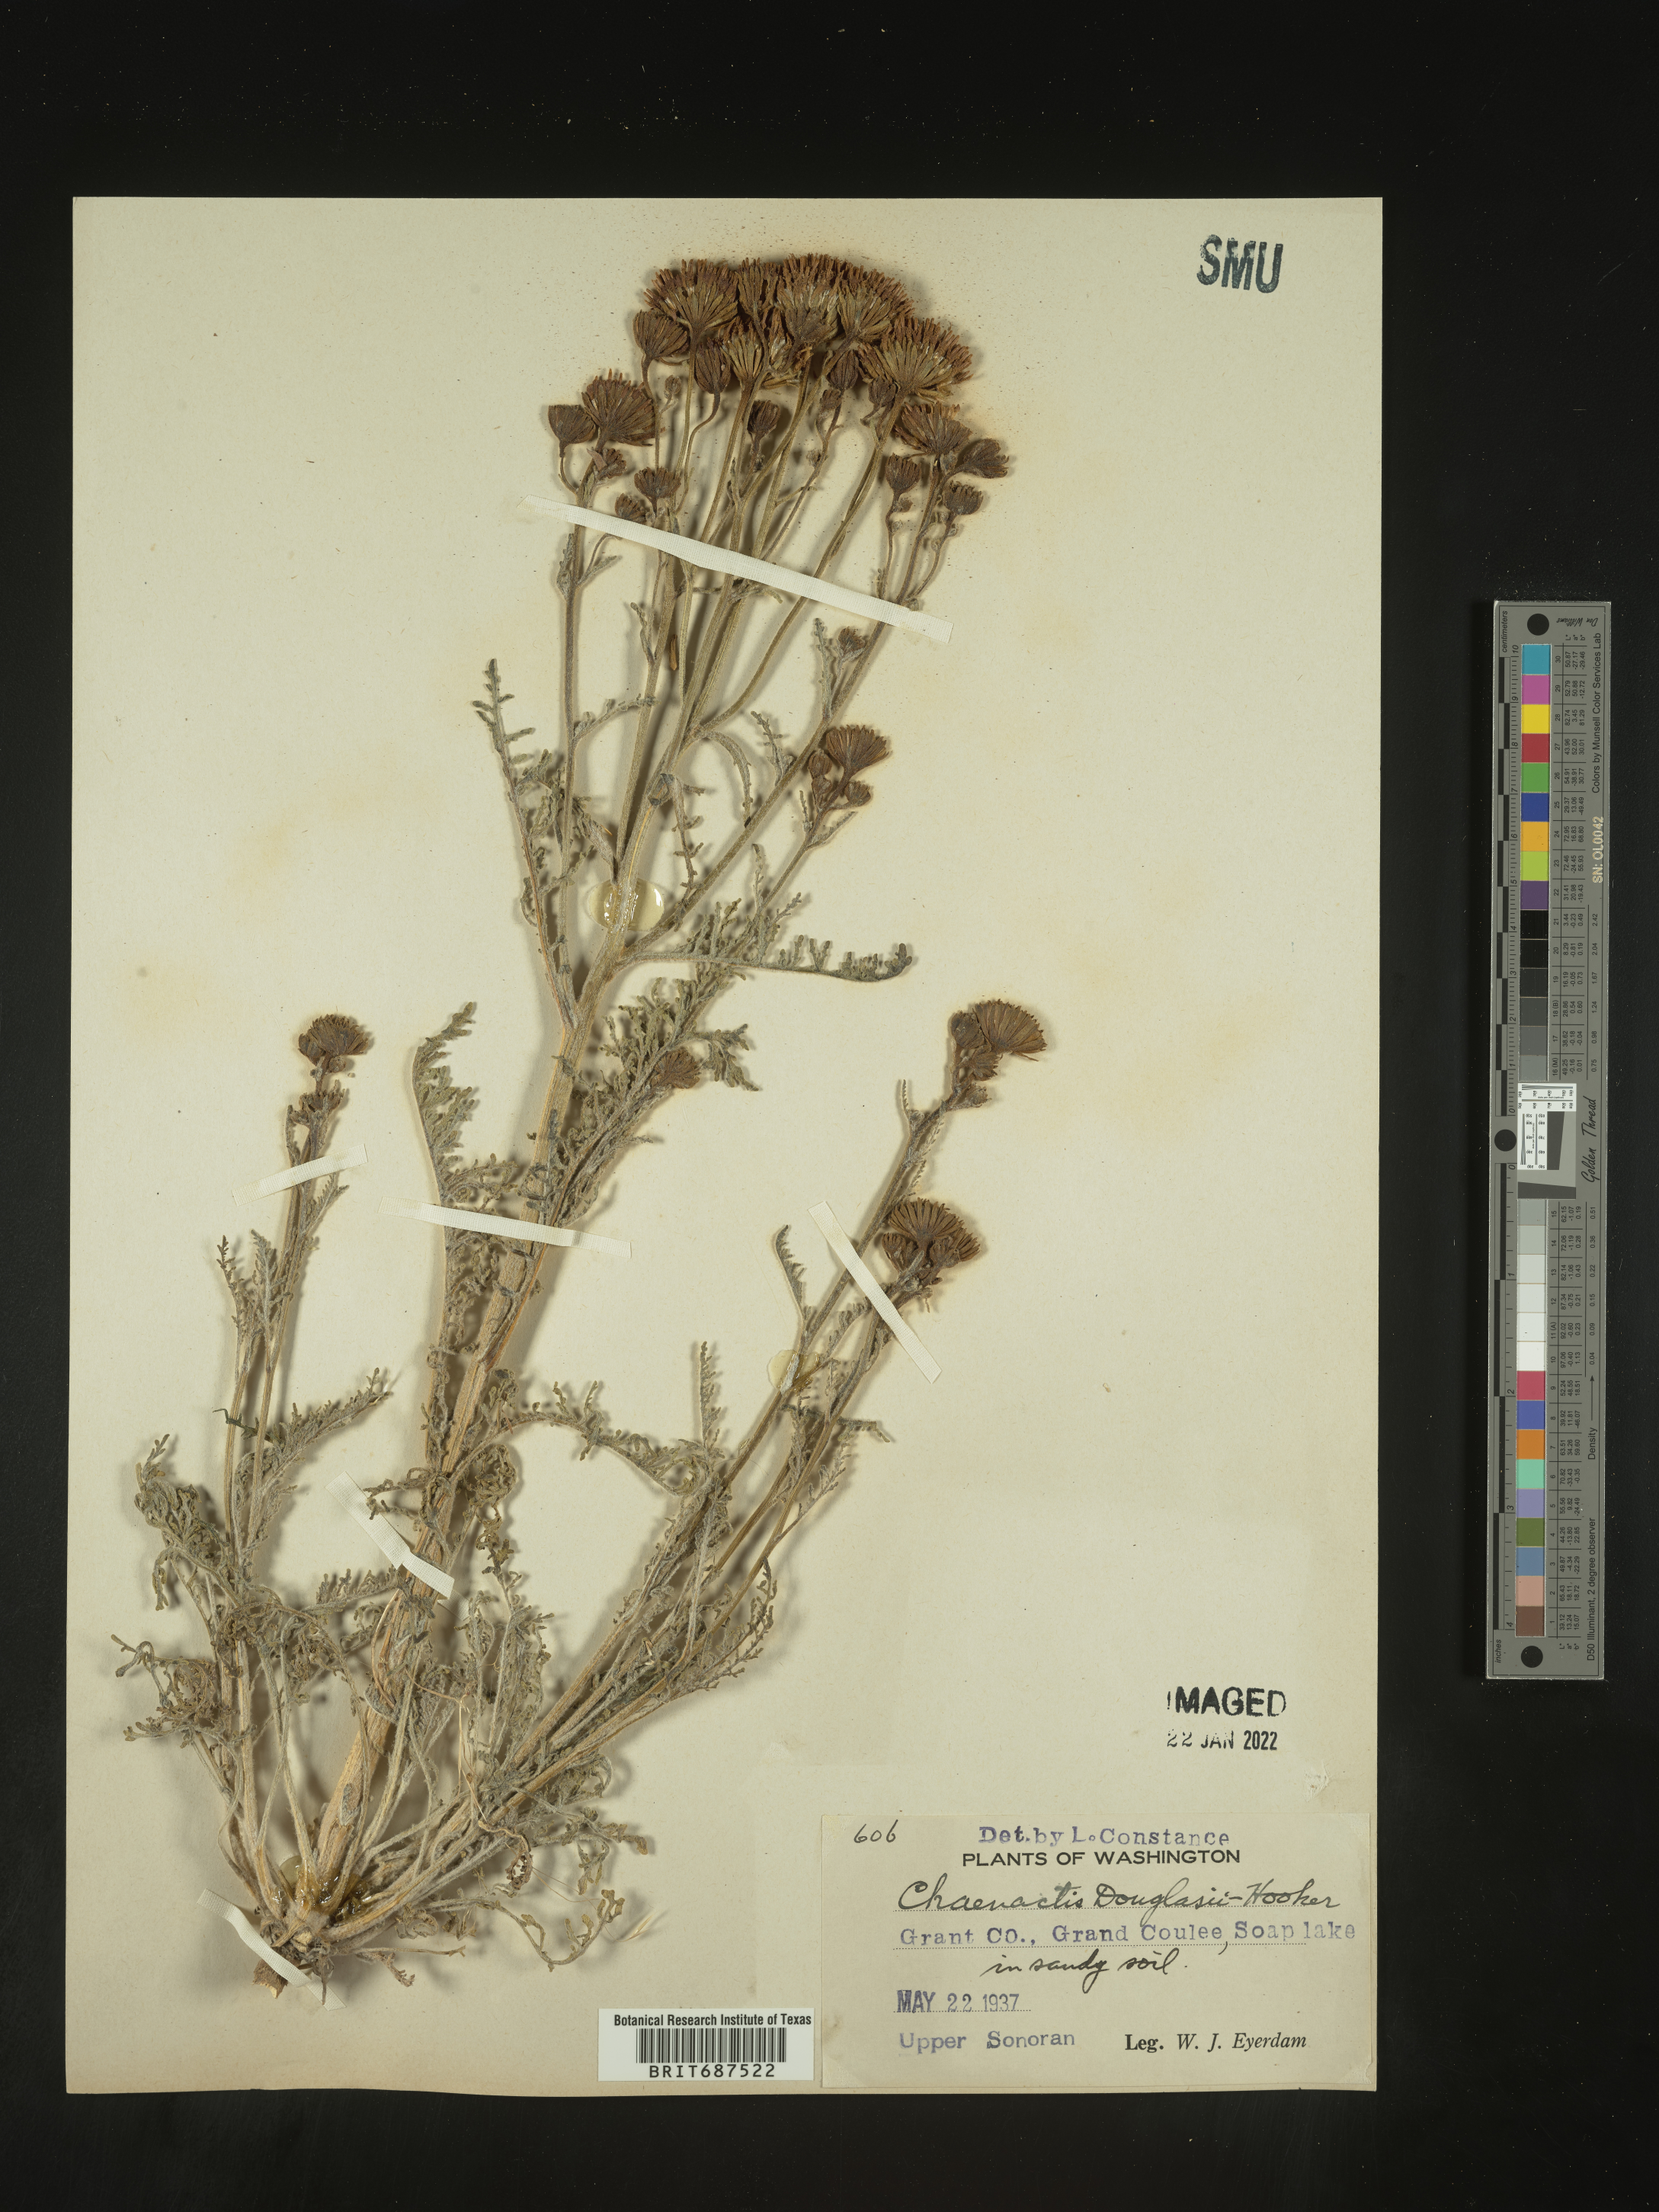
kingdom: Plantae
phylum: Tracheophyta
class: Magnoliopsida
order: Asterales
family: Asteraceae
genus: Chaenactis
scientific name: Chaenactis douglasii
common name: Hoary pincushion
